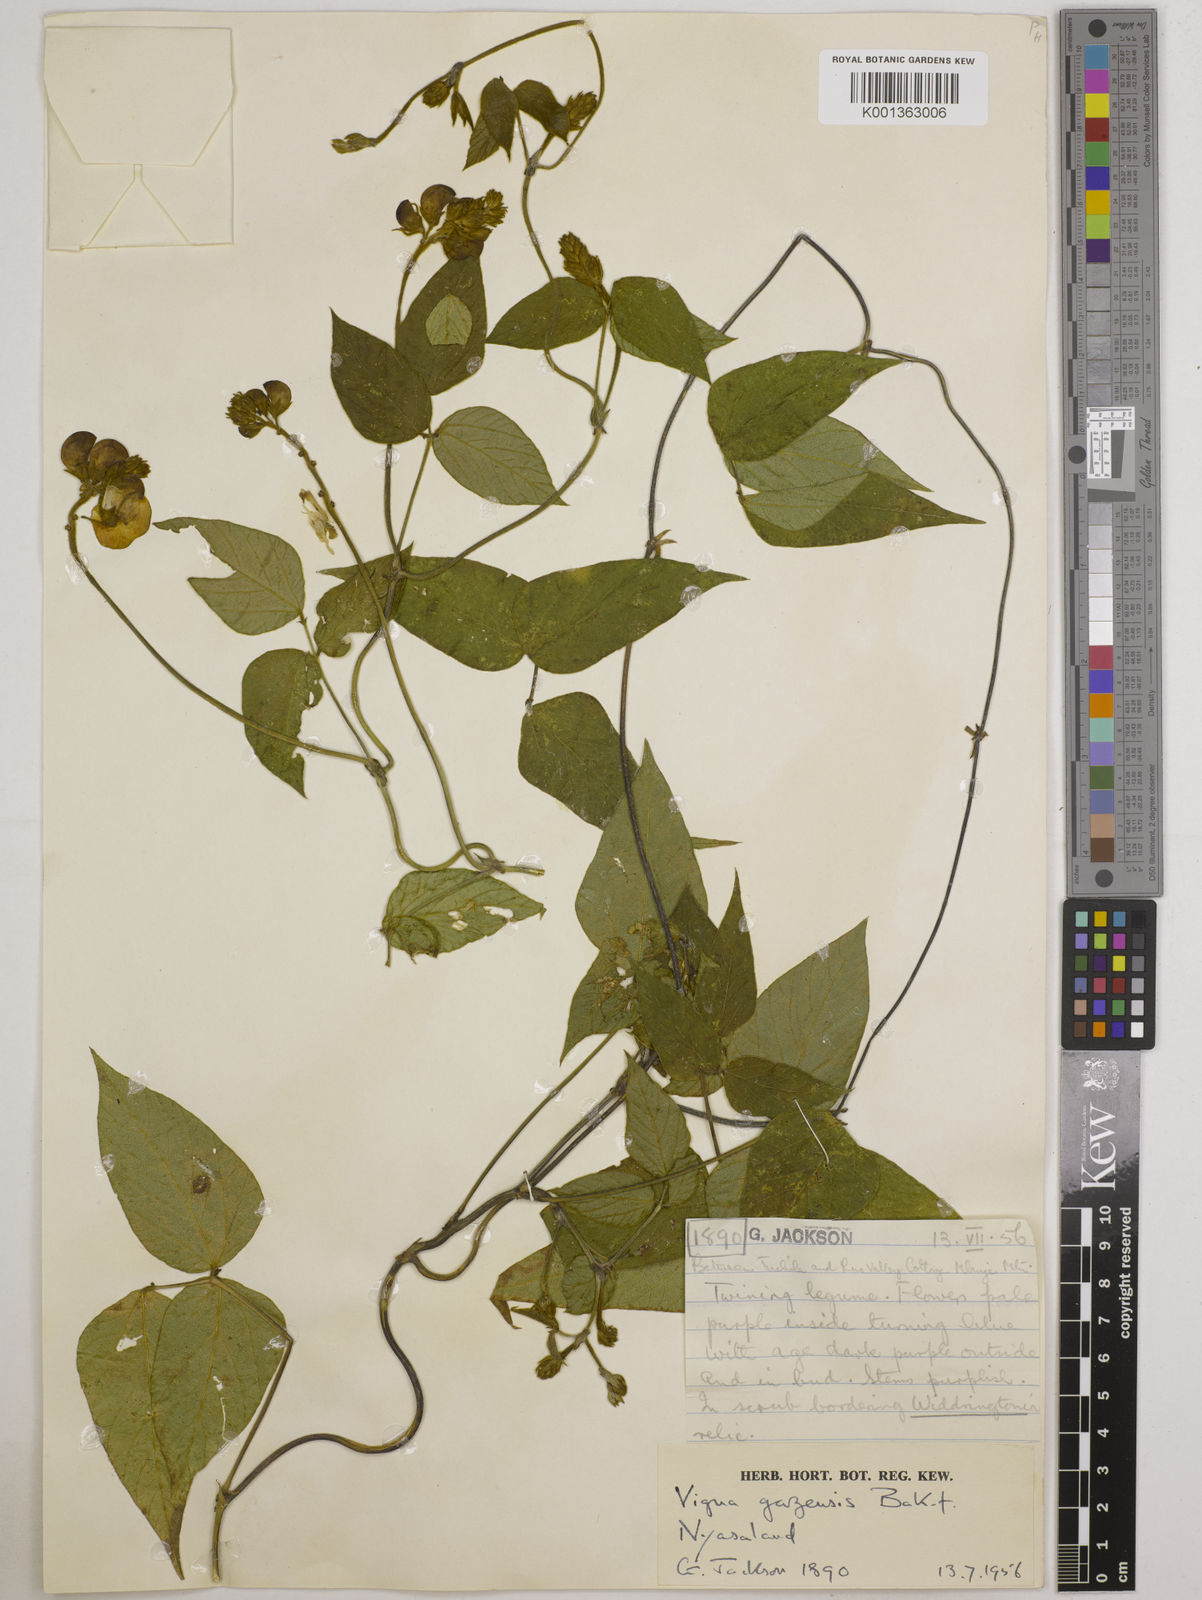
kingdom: Plantae
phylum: Tracheophyta
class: Magnoliopsida
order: Fabales
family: Fabaceae
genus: Vigna
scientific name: Vigna gazensis
